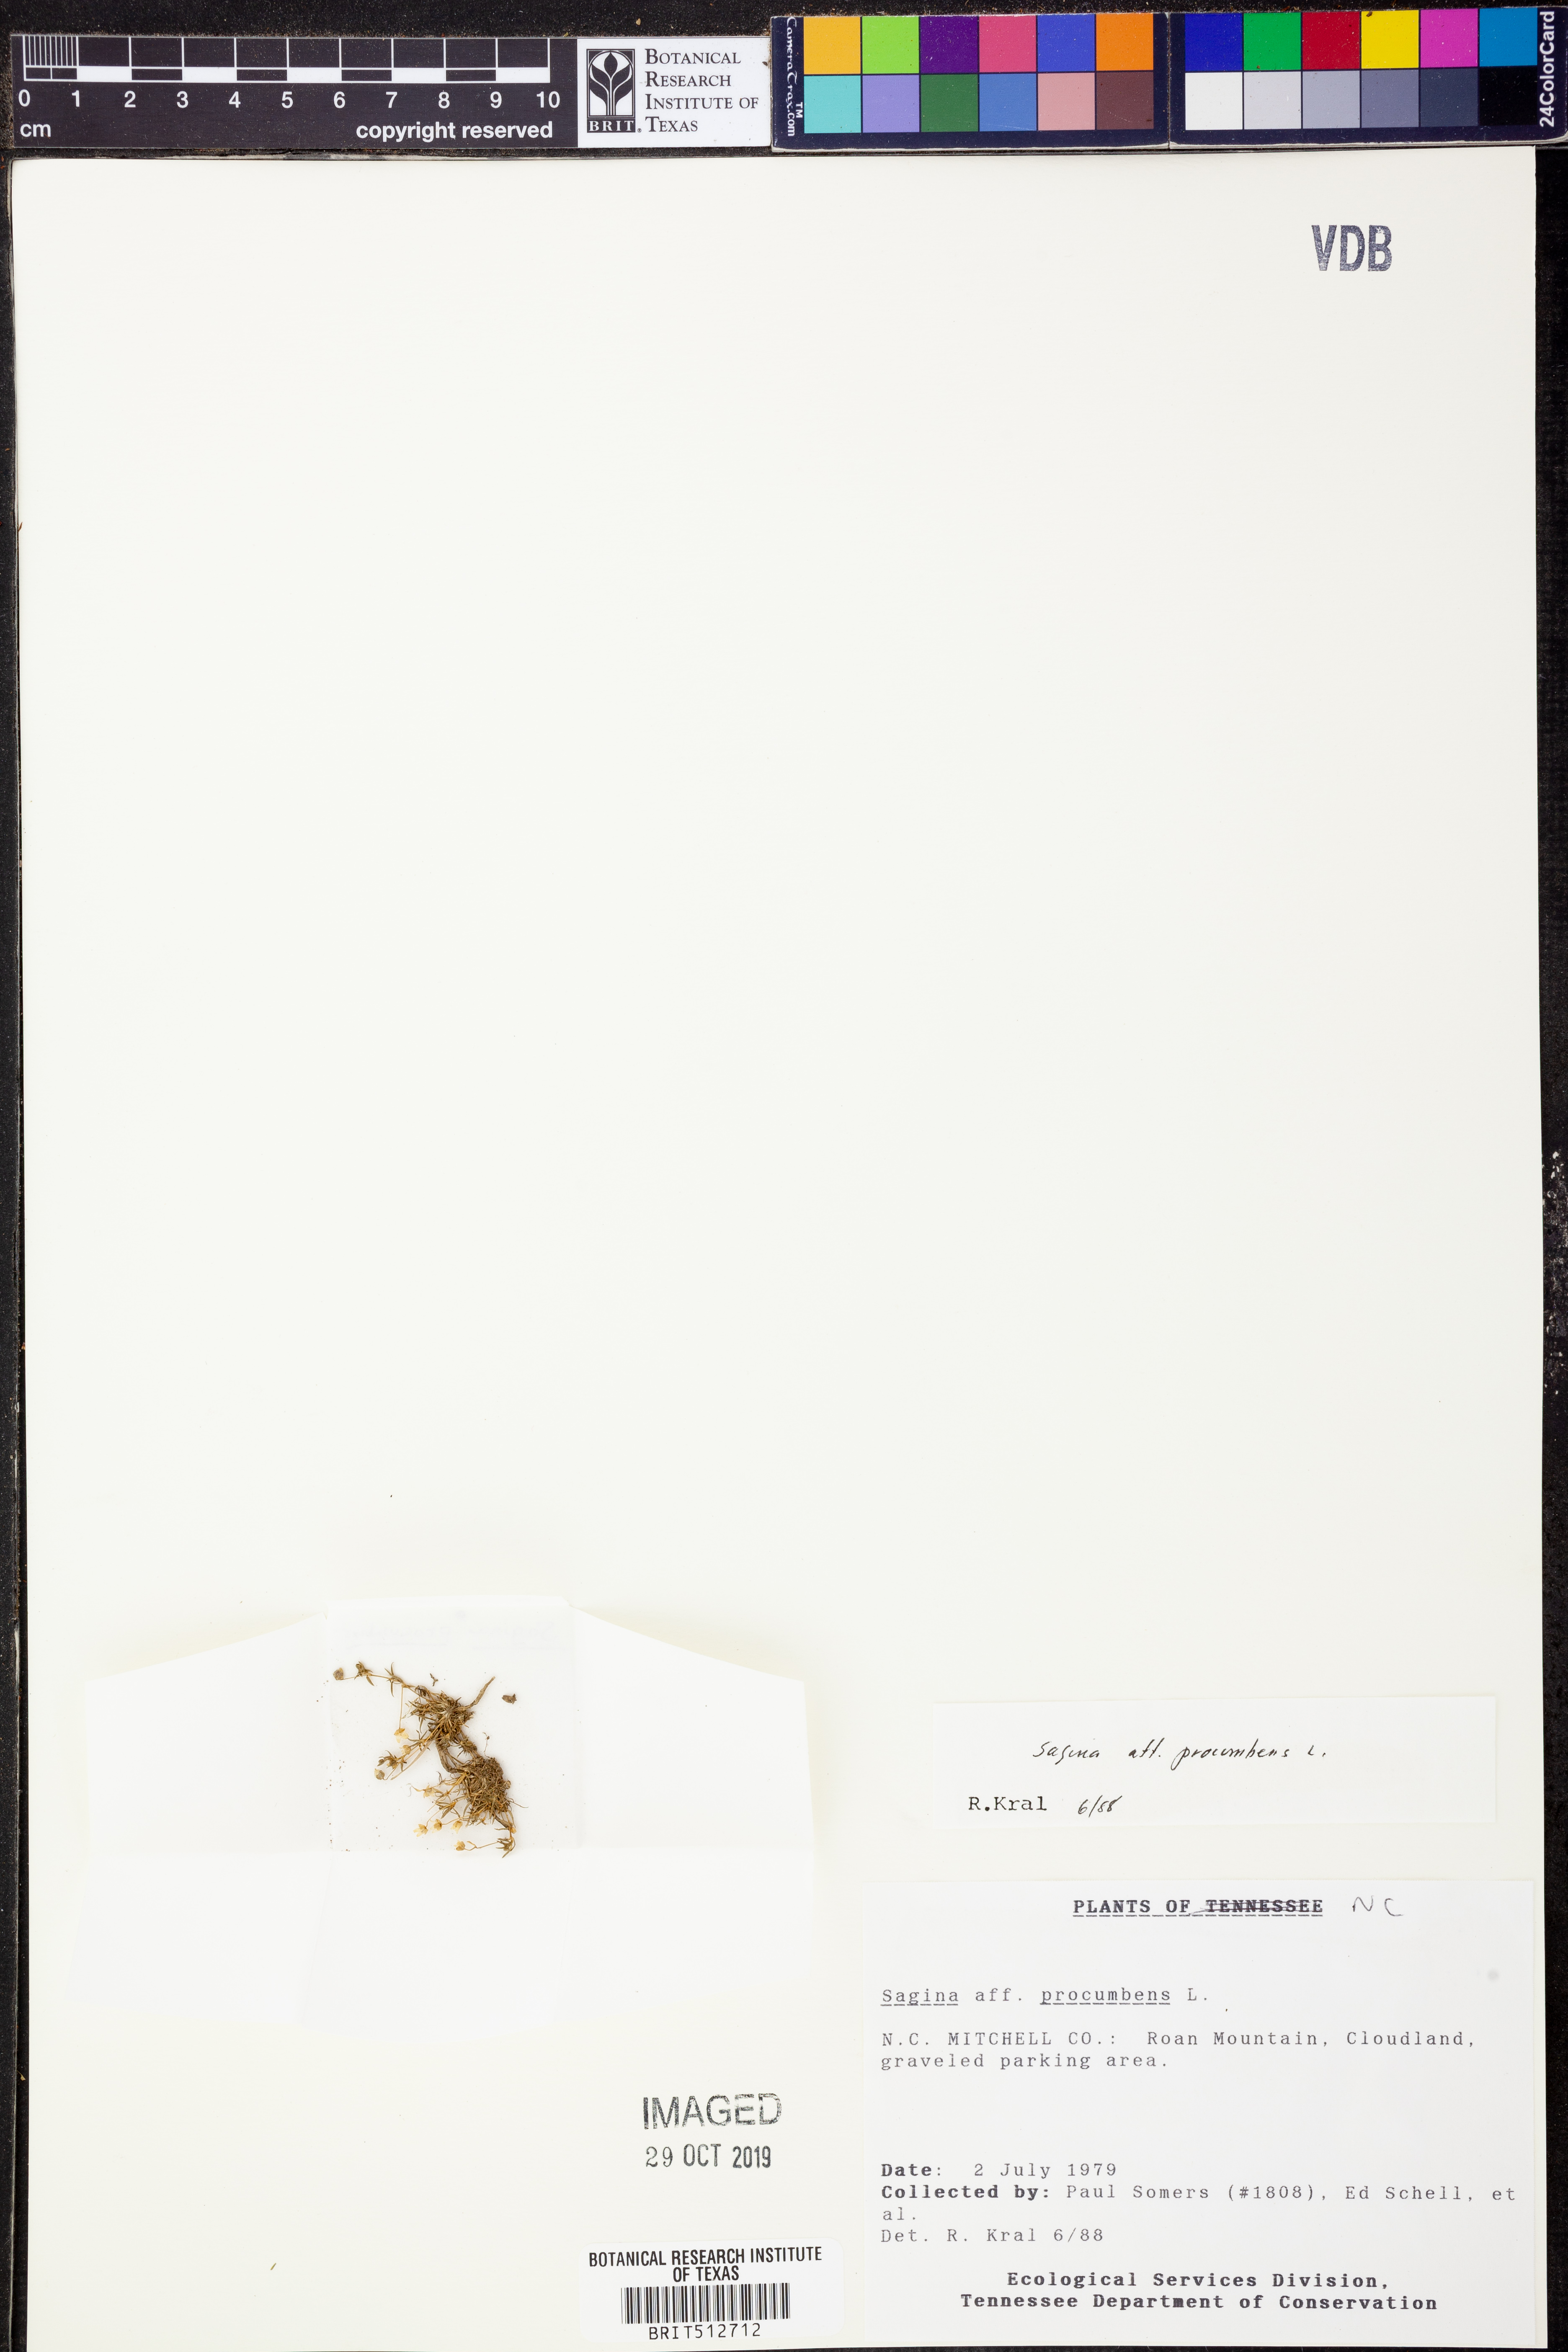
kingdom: Plantae
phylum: Tracheophyta
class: Magnoliopsida
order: Caryophyllales
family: Caryophyllaceae
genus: Sagina
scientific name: Sagina procumbens
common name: Procumbent pearlwort
